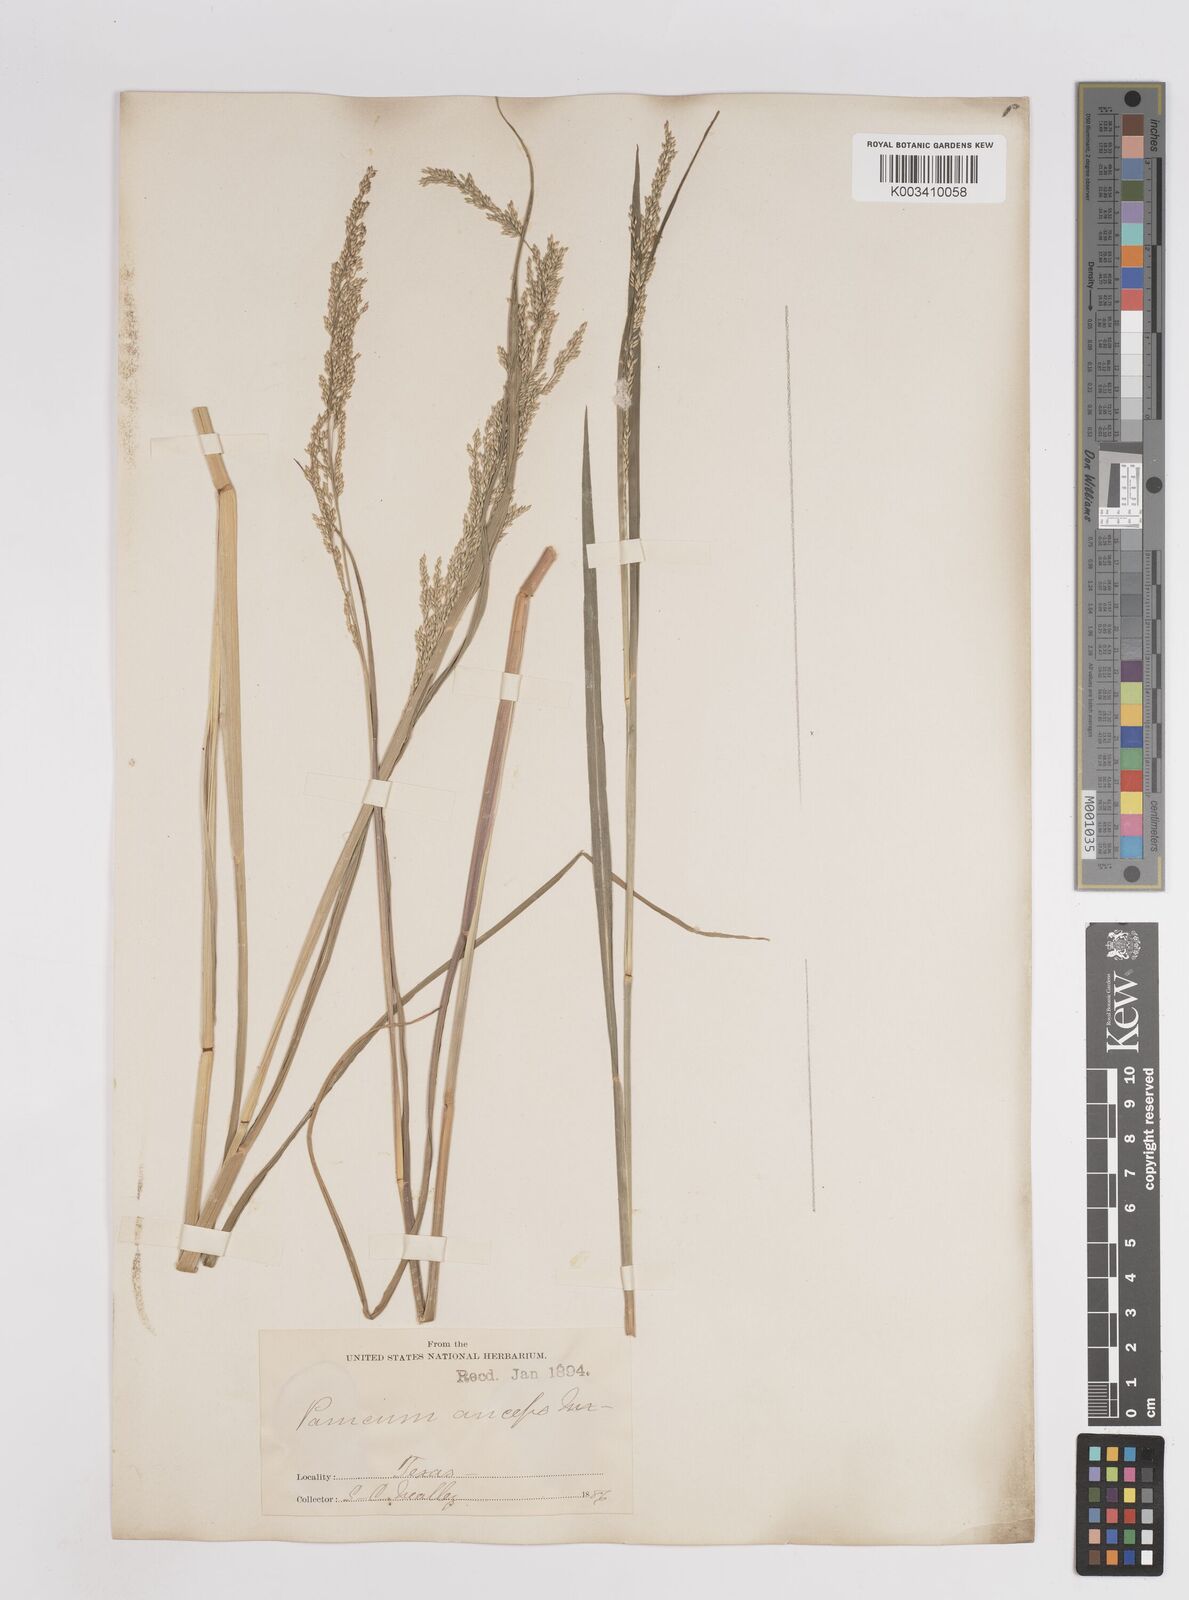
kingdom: Plantae
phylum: Tracheophyta
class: Liliopsida
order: Poales
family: Poaceae
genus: Coleataenia
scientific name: Coleataenia anceps
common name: Beaked panic grass
